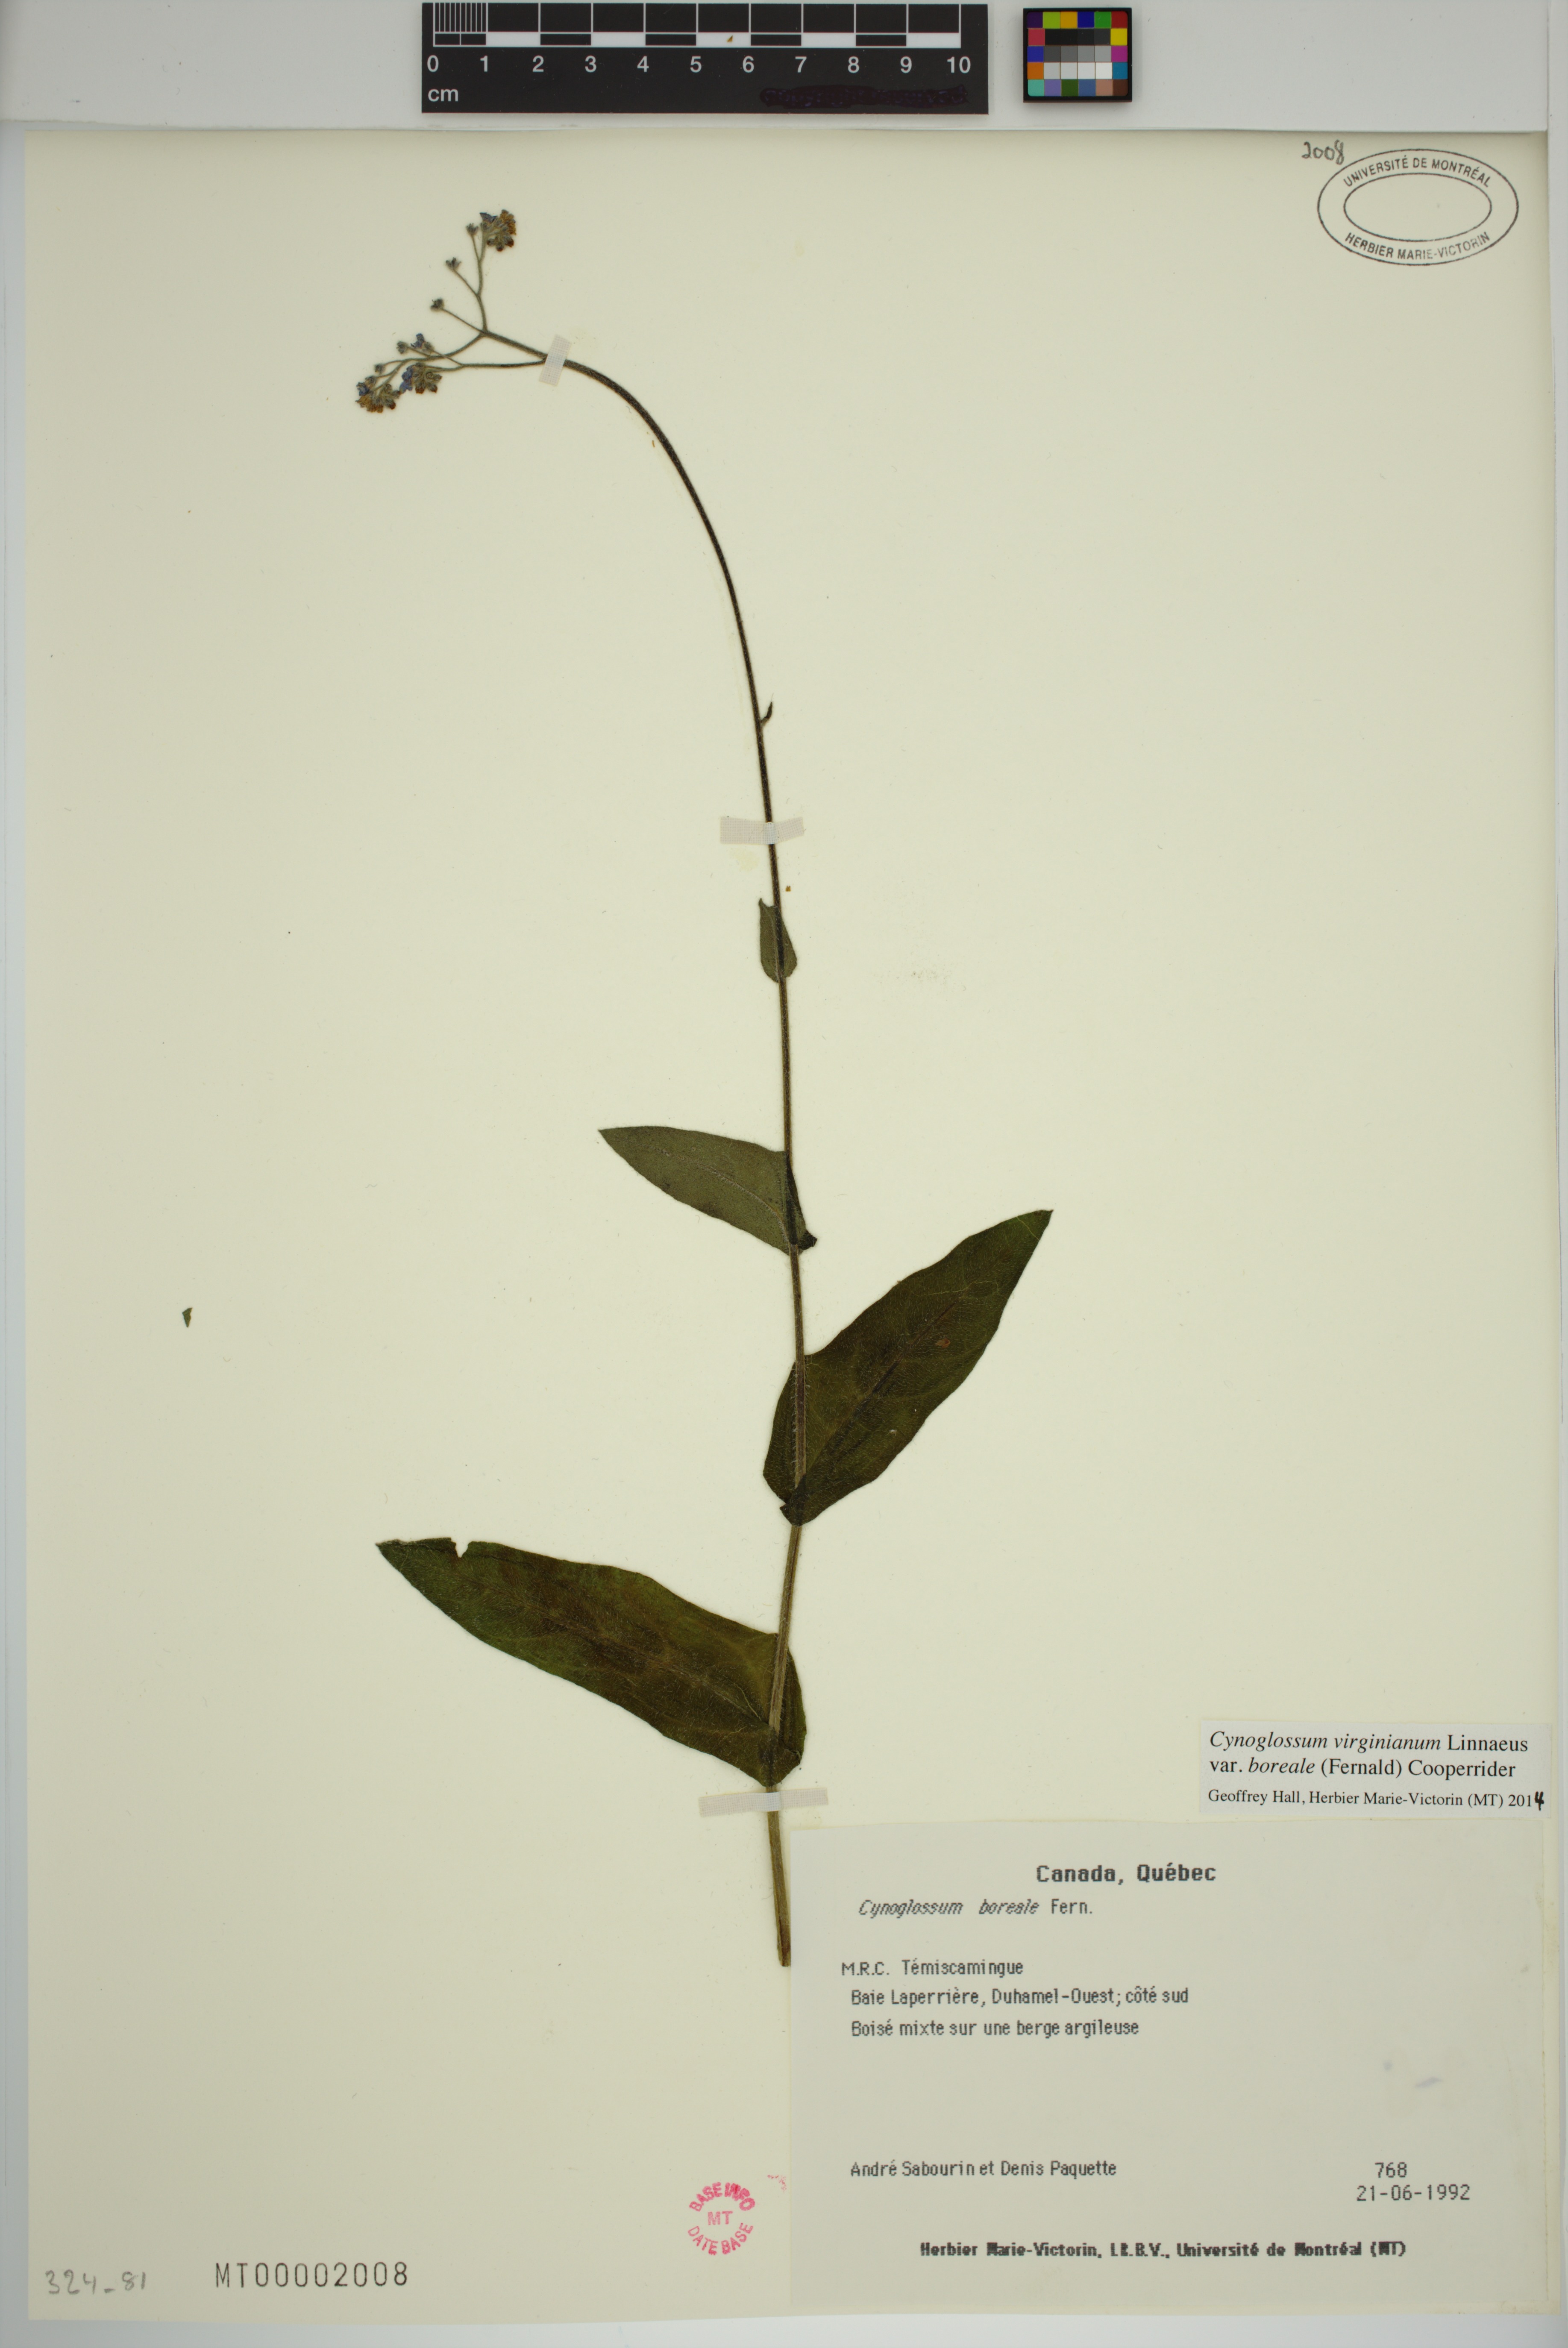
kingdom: Plantae
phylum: Tracheophyta
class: Magnoliopsida
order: Boraginales
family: Boraginaceae
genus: Andersonglossum
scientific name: Andersonglossum boreale
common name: Northern hound's-tongue
